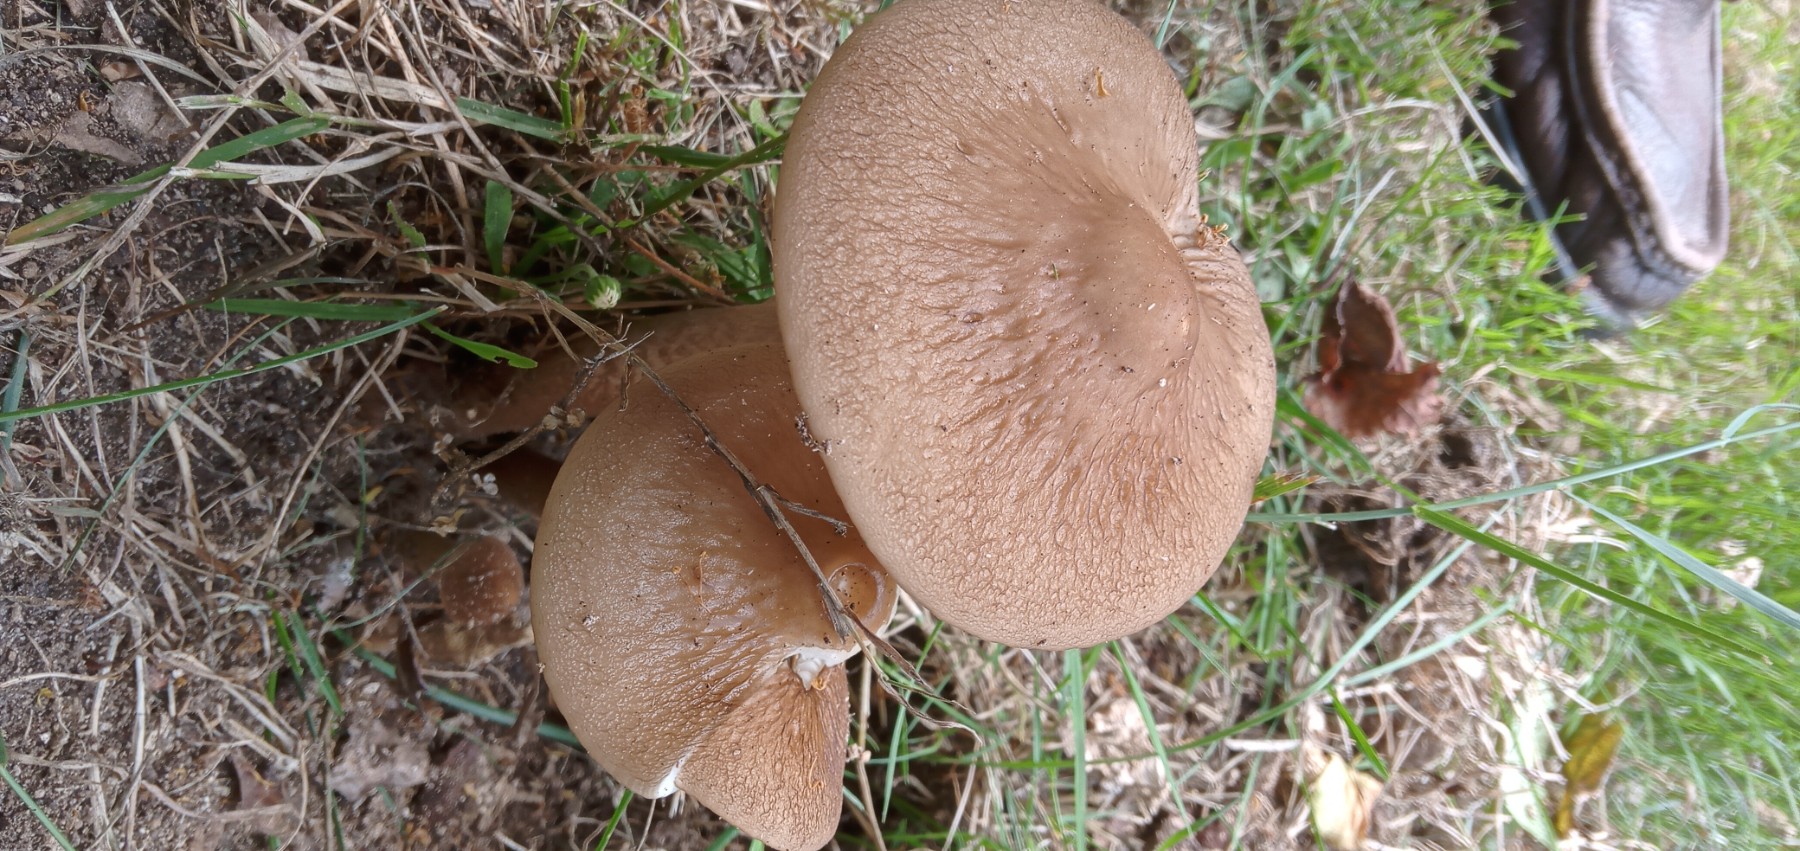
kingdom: Fungi
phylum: Basidiomycota
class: Agaricomycetes
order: Agaricales
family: Physalacriaceae
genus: Hymenopellis
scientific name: Hymenopellis radicata
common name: almindelig pælerodshat
